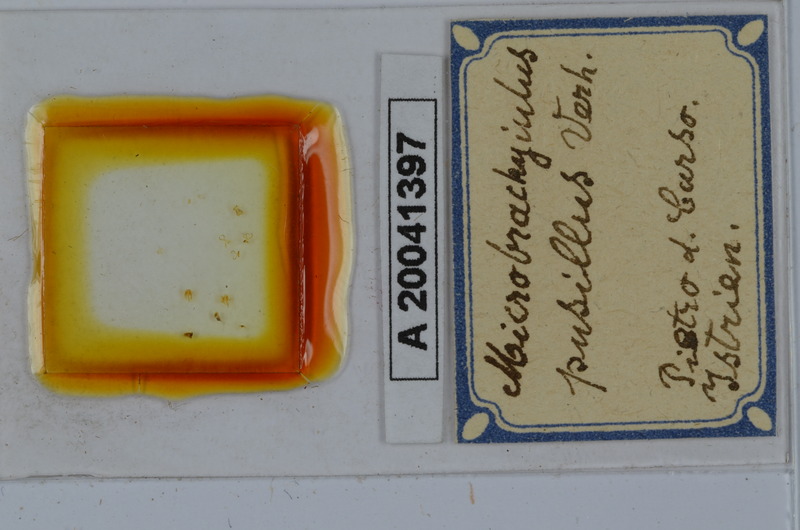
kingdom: Animalia
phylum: Arthropoda
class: Diplopoda
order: Julida
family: Julidae
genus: Brachyiulus
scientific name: Brachyiulus pusillus
